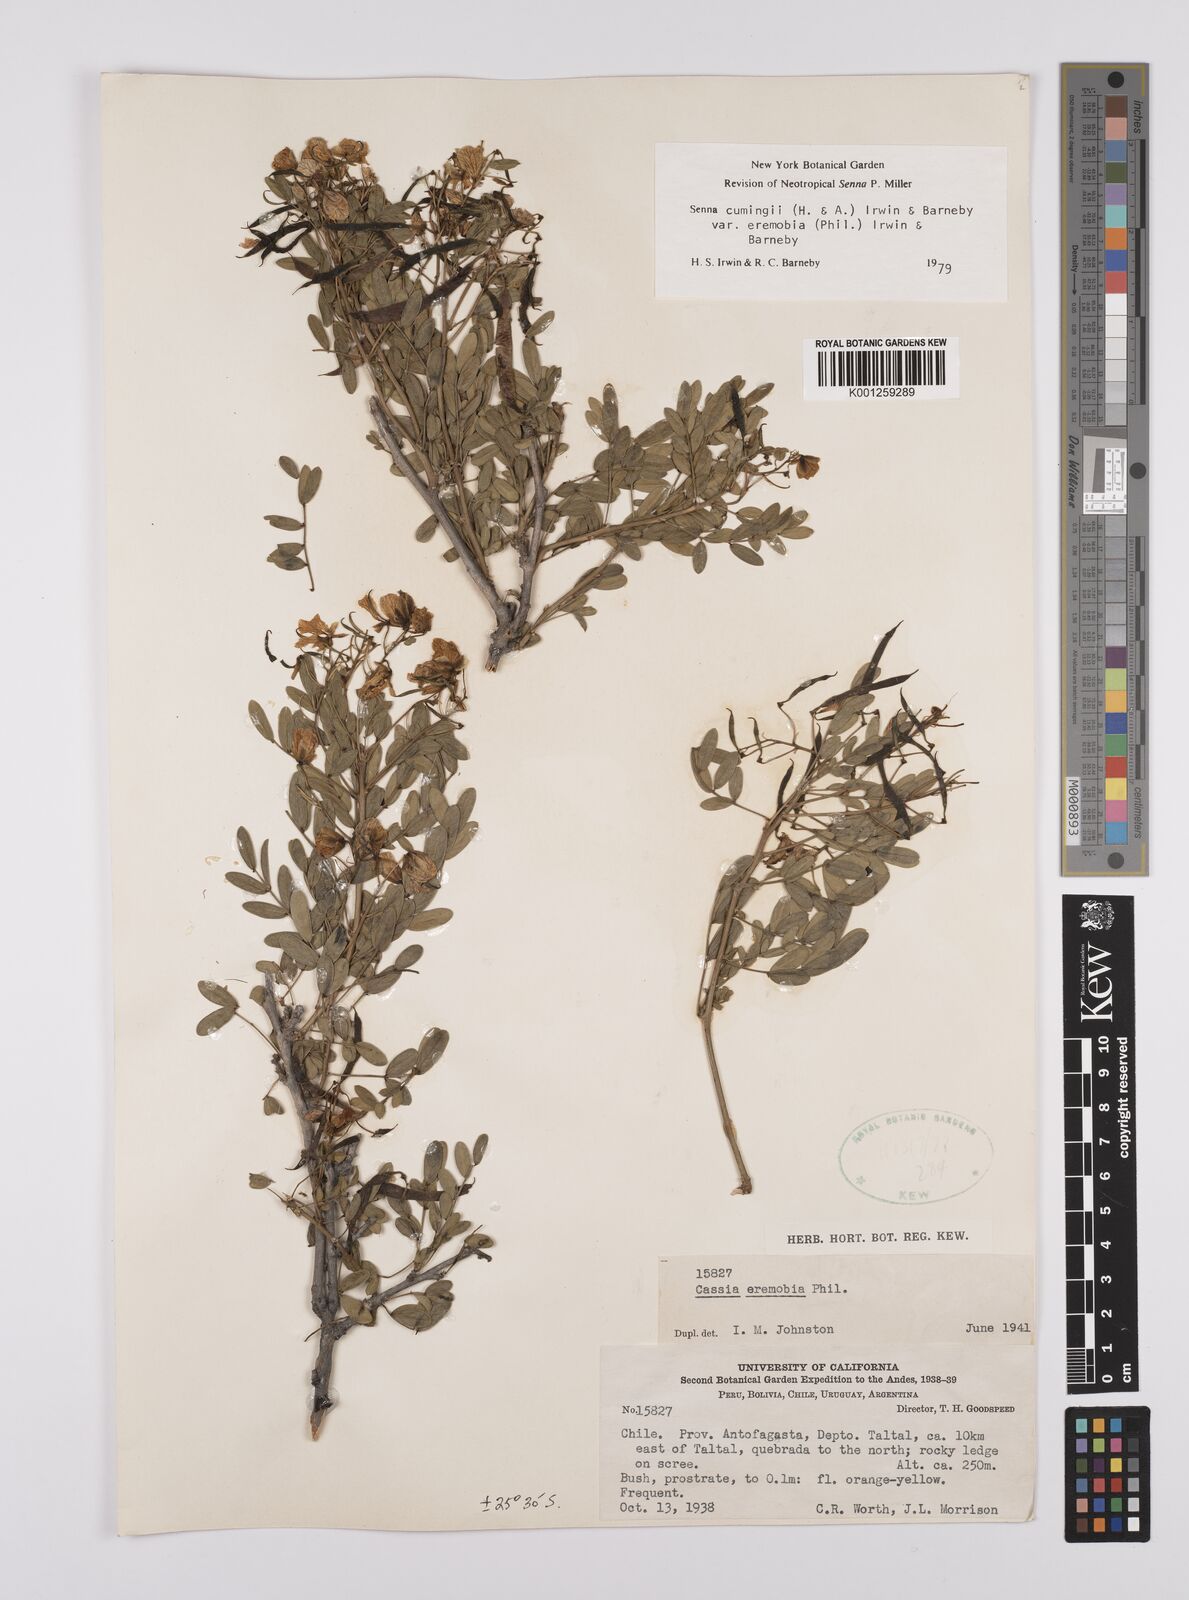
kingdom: Plantae
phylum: Tracheophyta
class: Magnoliopsida
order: Fabales
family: Fabaceae
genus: Senna
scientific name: Senna cumingii
